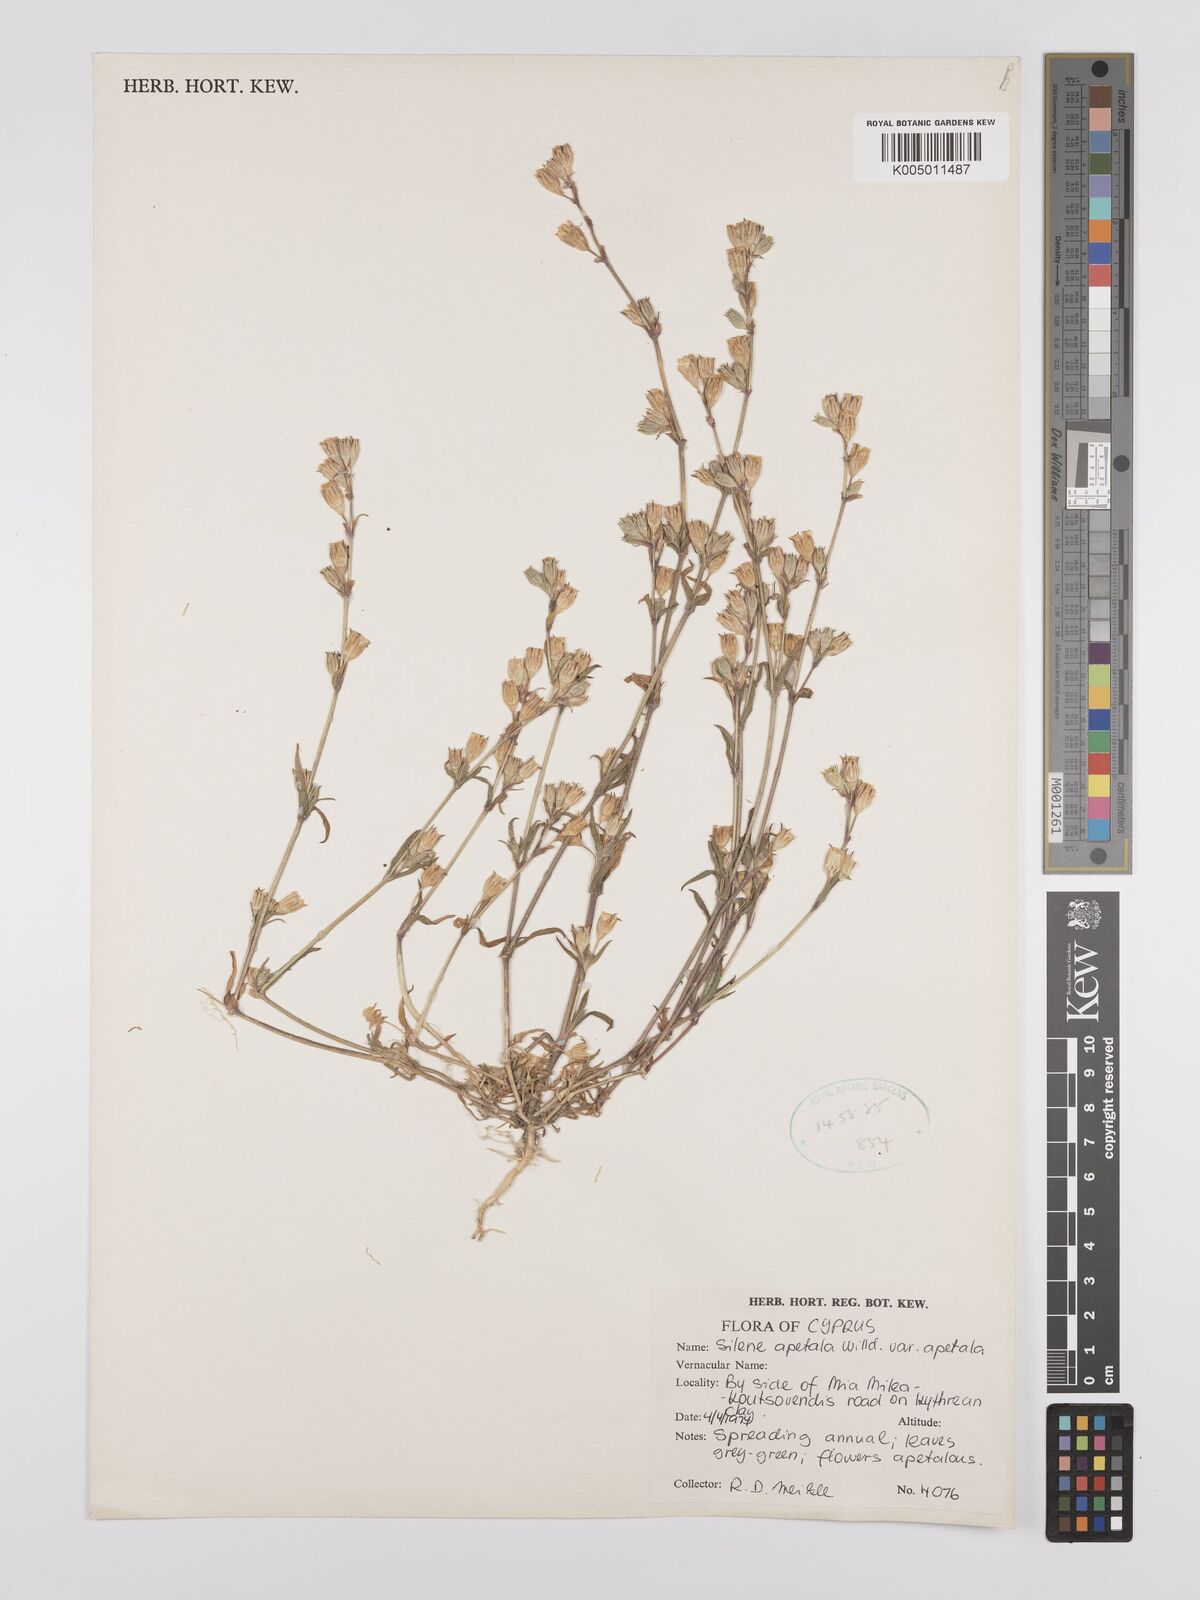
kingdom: Plantae
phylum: Tracheophyta
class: Magnoliopsida
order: Caryophyllales
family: Caryophyllaceae
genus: Silene
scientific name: Silene apetala
